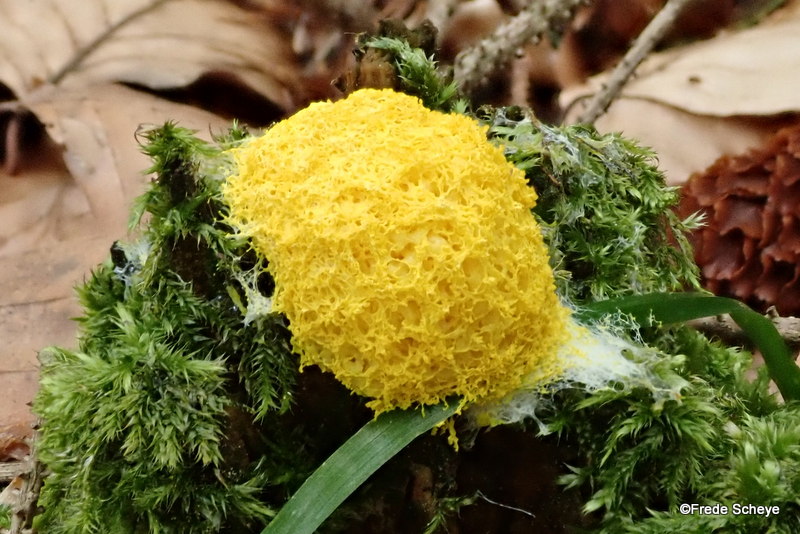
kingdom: Protozoa
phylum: Mycetozoa
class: Myxomycetes
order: Physarales
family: Physaraceae
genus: Fuligo
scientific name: Fuligo septica
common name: gul troldsmør
